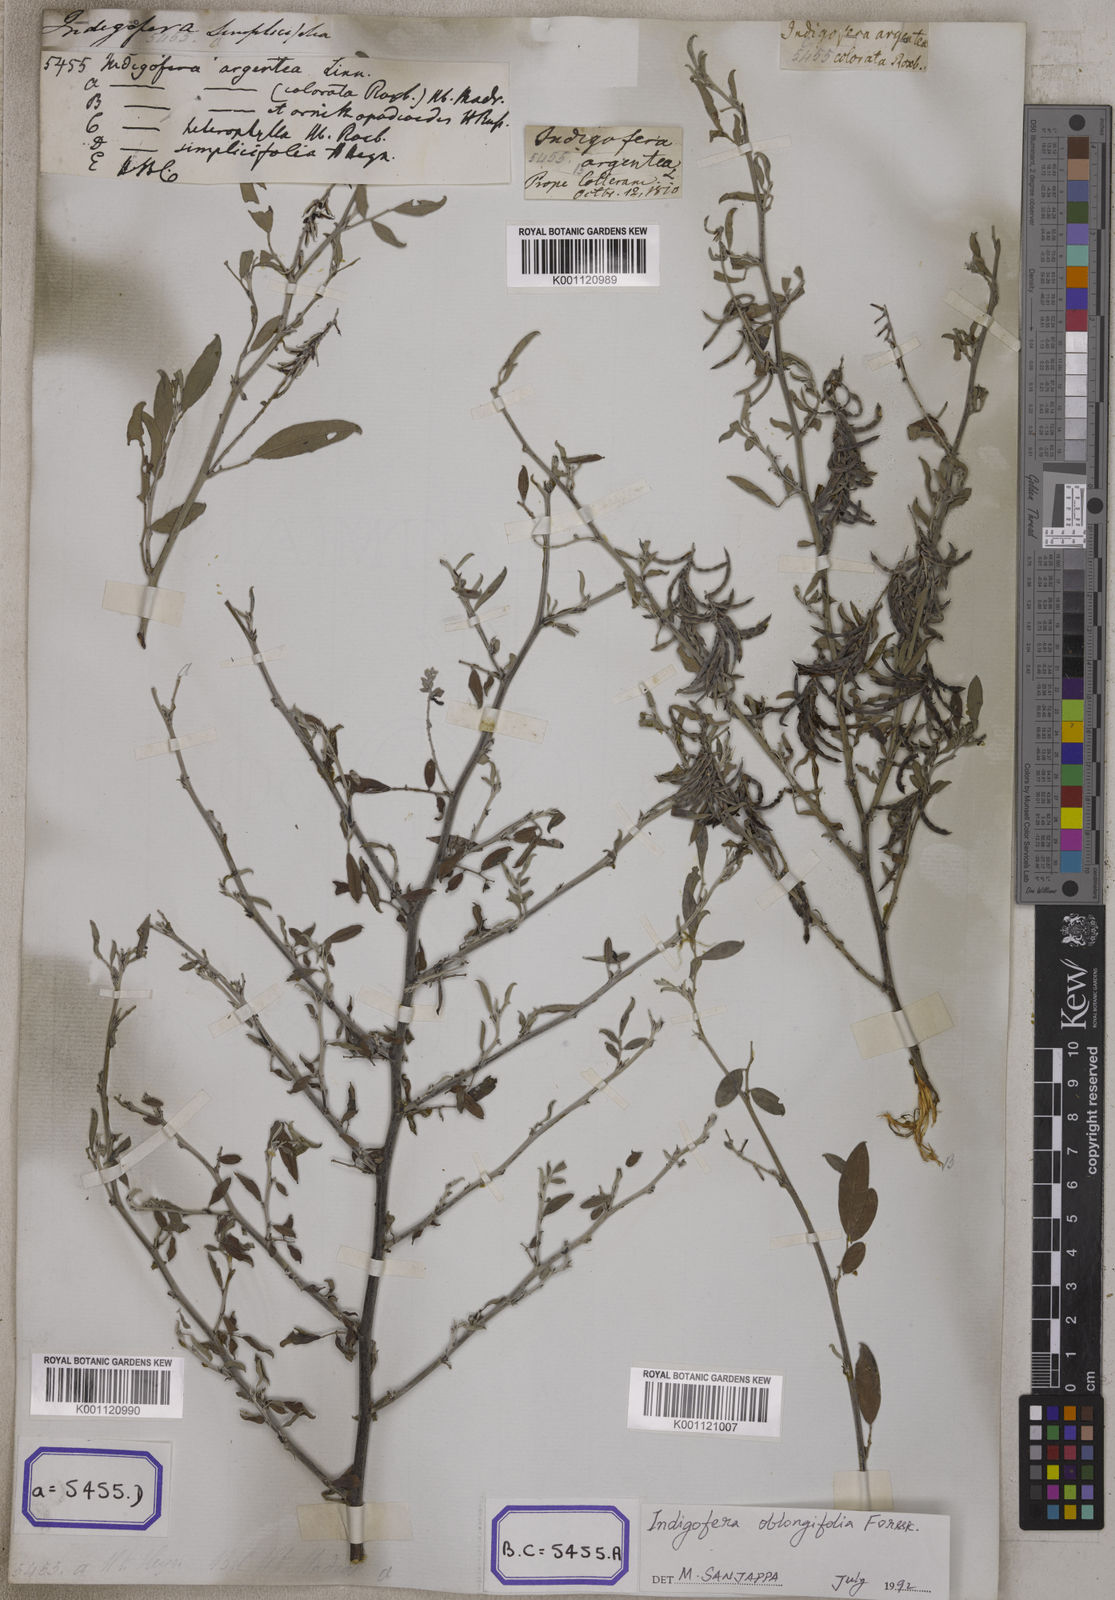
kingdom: Plantae
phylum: Tracheophyta
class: Magnoliopsida
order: Fabales
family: Fabaceae
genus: Indigofera
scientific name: Indigofera
